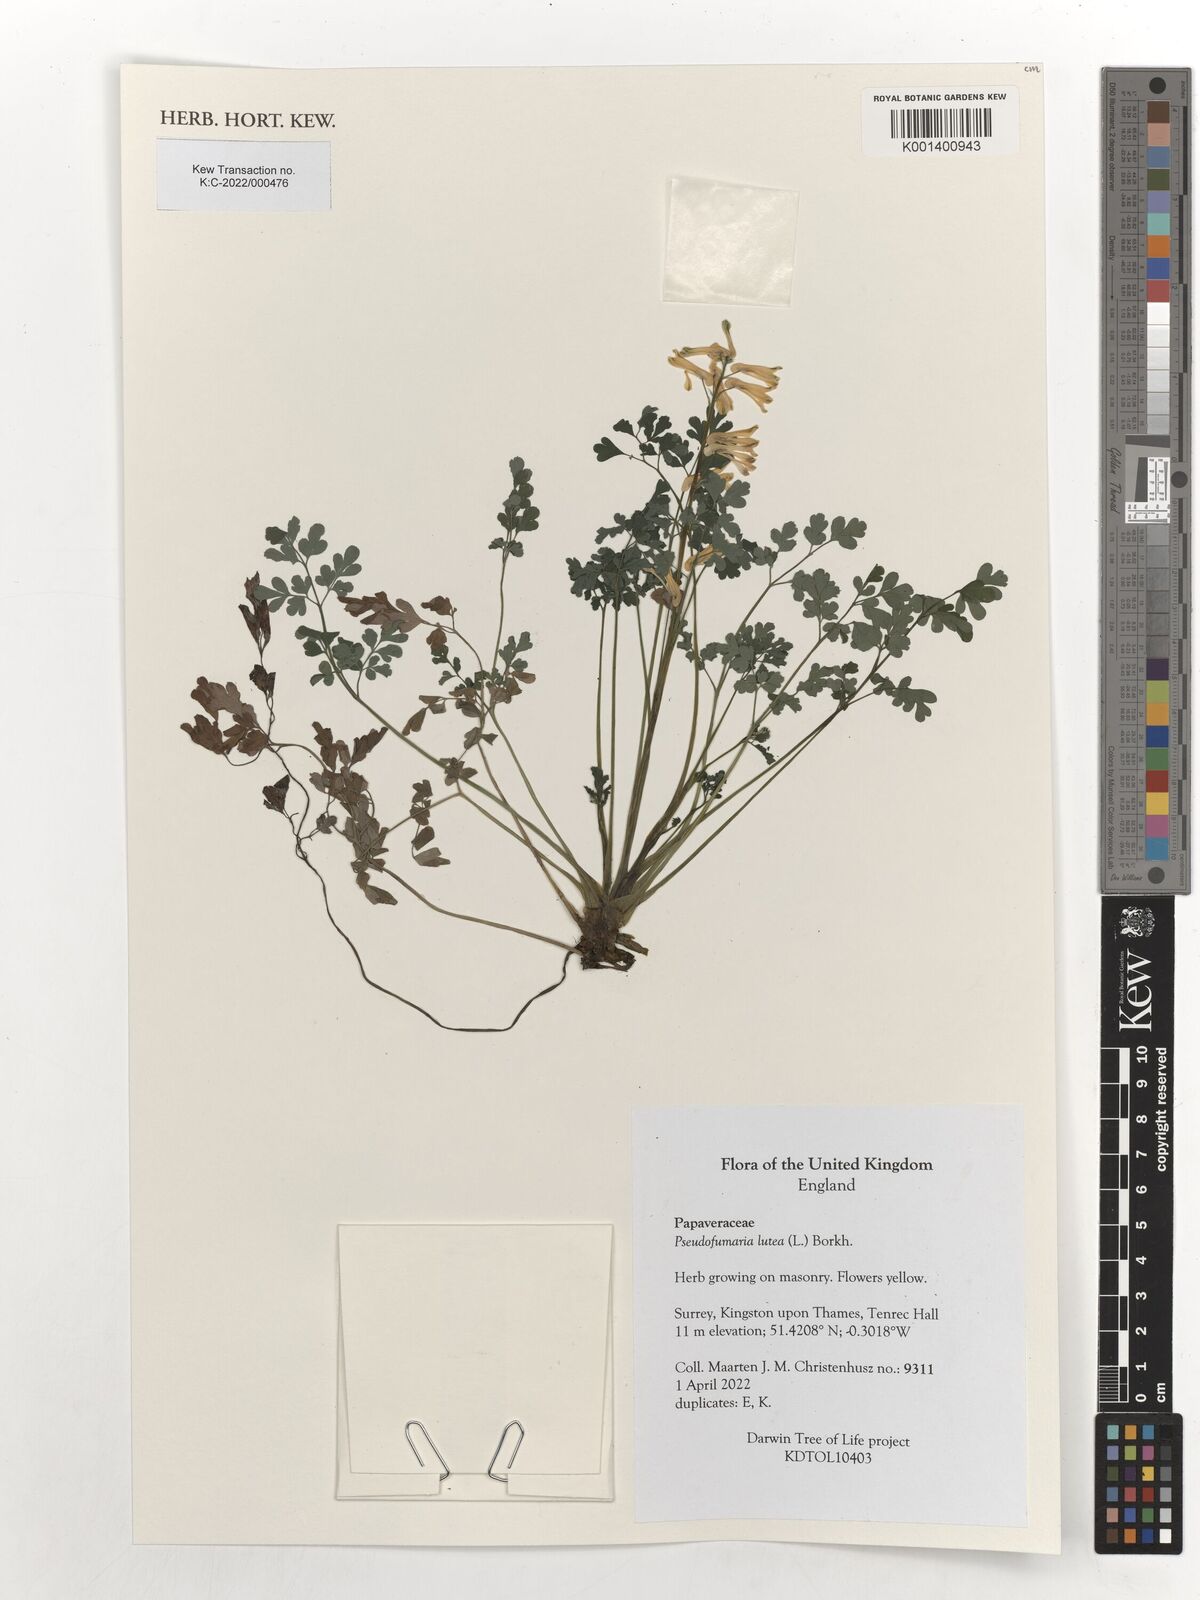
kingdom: Plantae
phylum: Tracheophyta
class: Magnoliopsida
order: Ranunculales
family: Papaveraceae
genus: Pseudofumaria
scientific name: Pseudofumaria lutea
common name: Yellow corydalis
